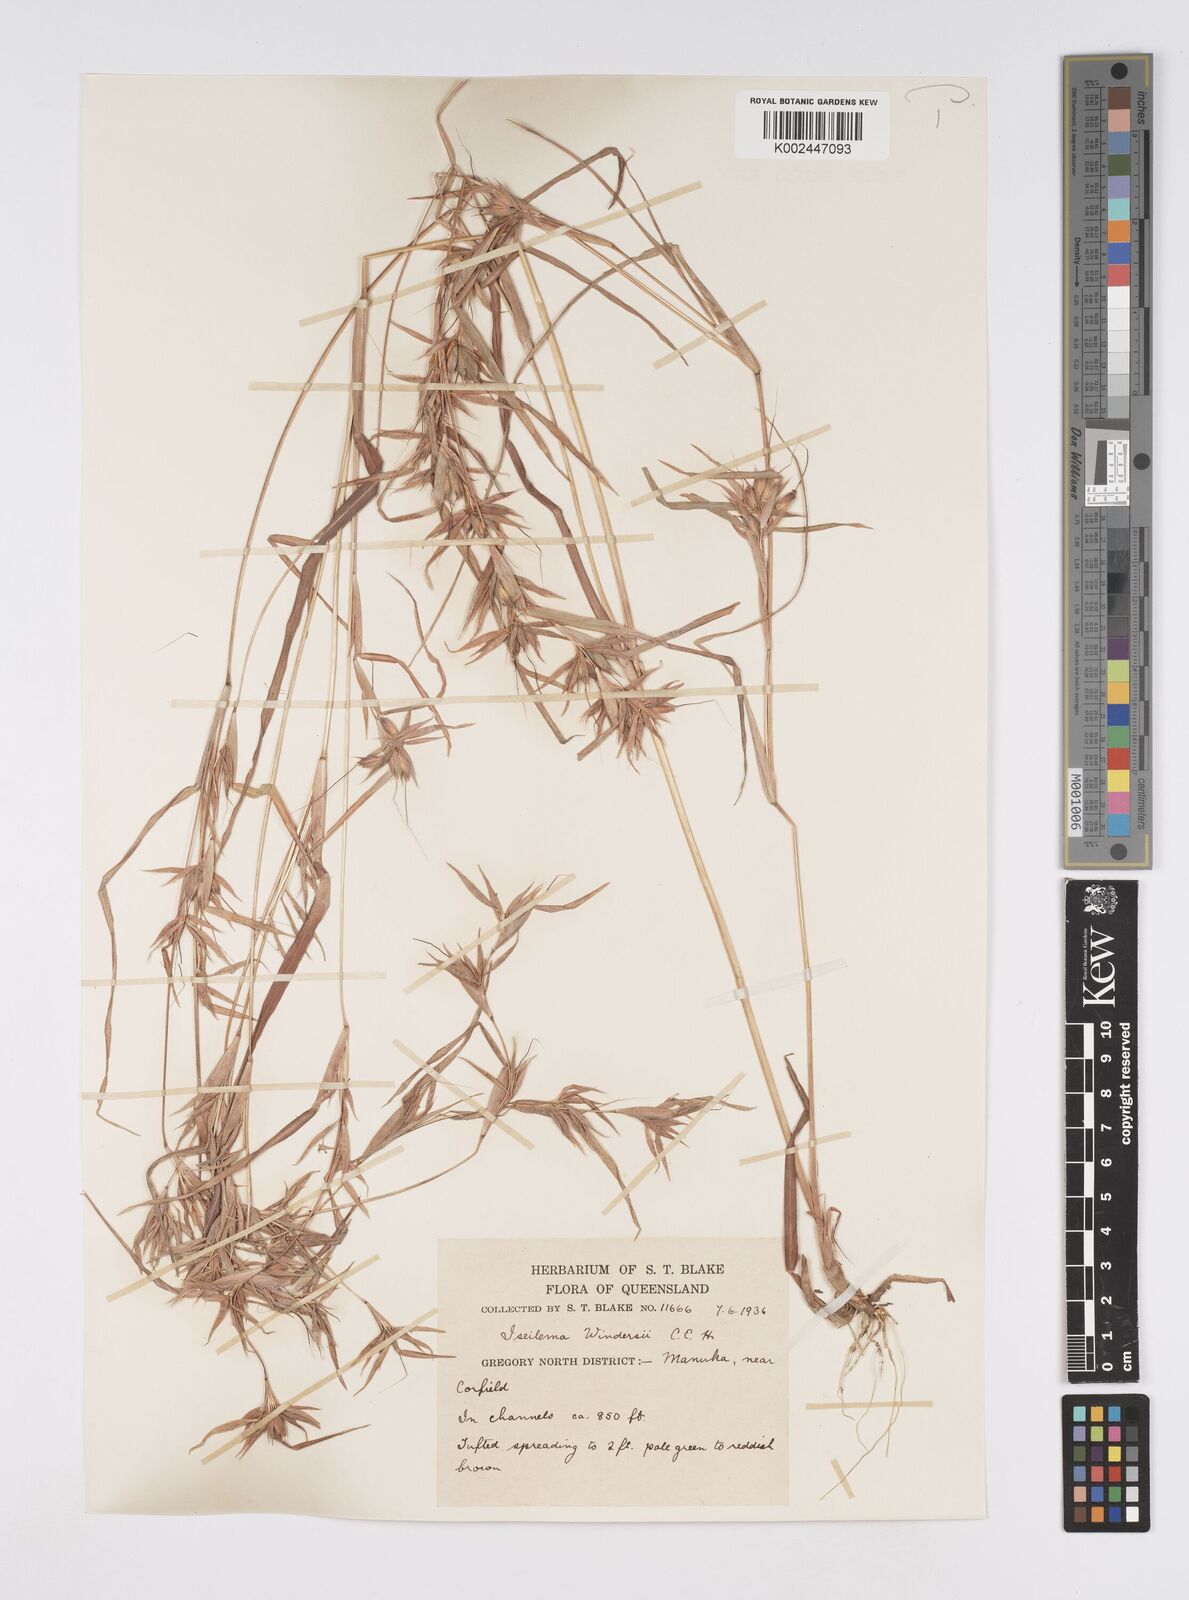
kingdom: Plantae
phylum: Tracheophyta
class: Liliopsida
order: Poales
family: Poaceae
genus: Iseilema
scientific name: Iseilema windersii
